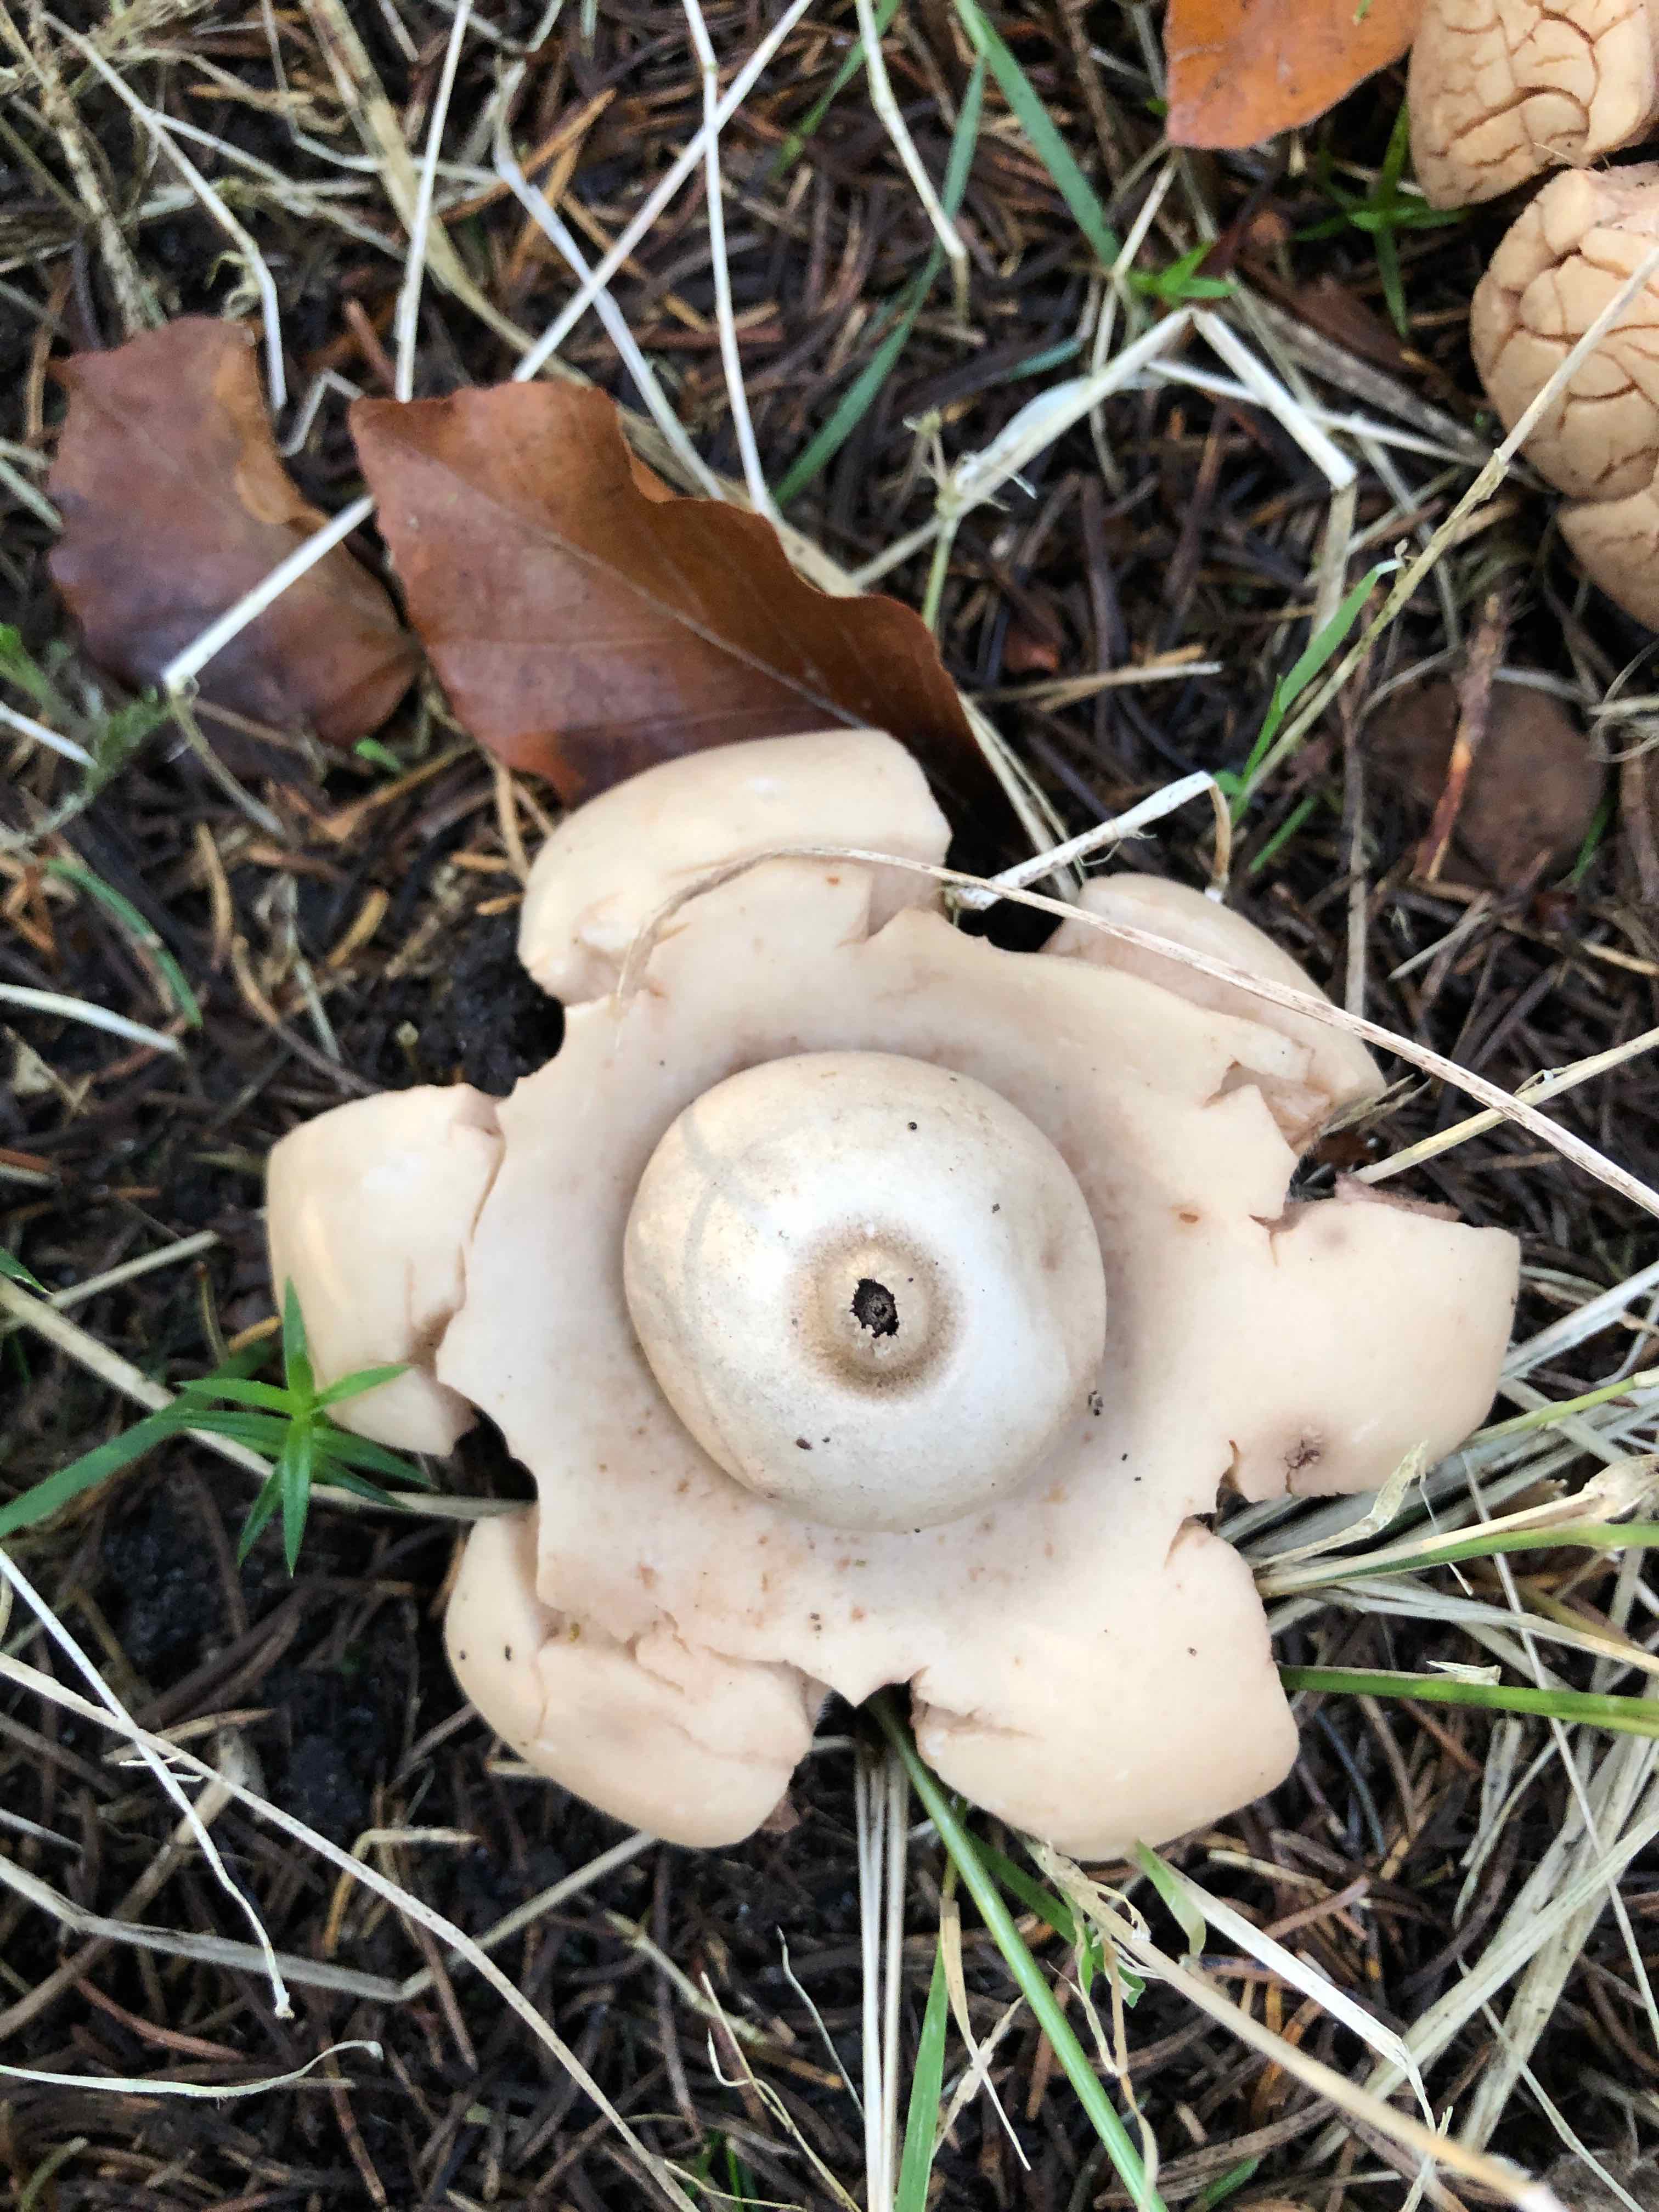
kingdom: Fungi
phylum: Basidiomycota
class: Agaricomycetes
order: Geastrales
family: Geastraceae
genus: Geastrum
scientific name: Geastrum michelianum
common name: kødet stjernebold
